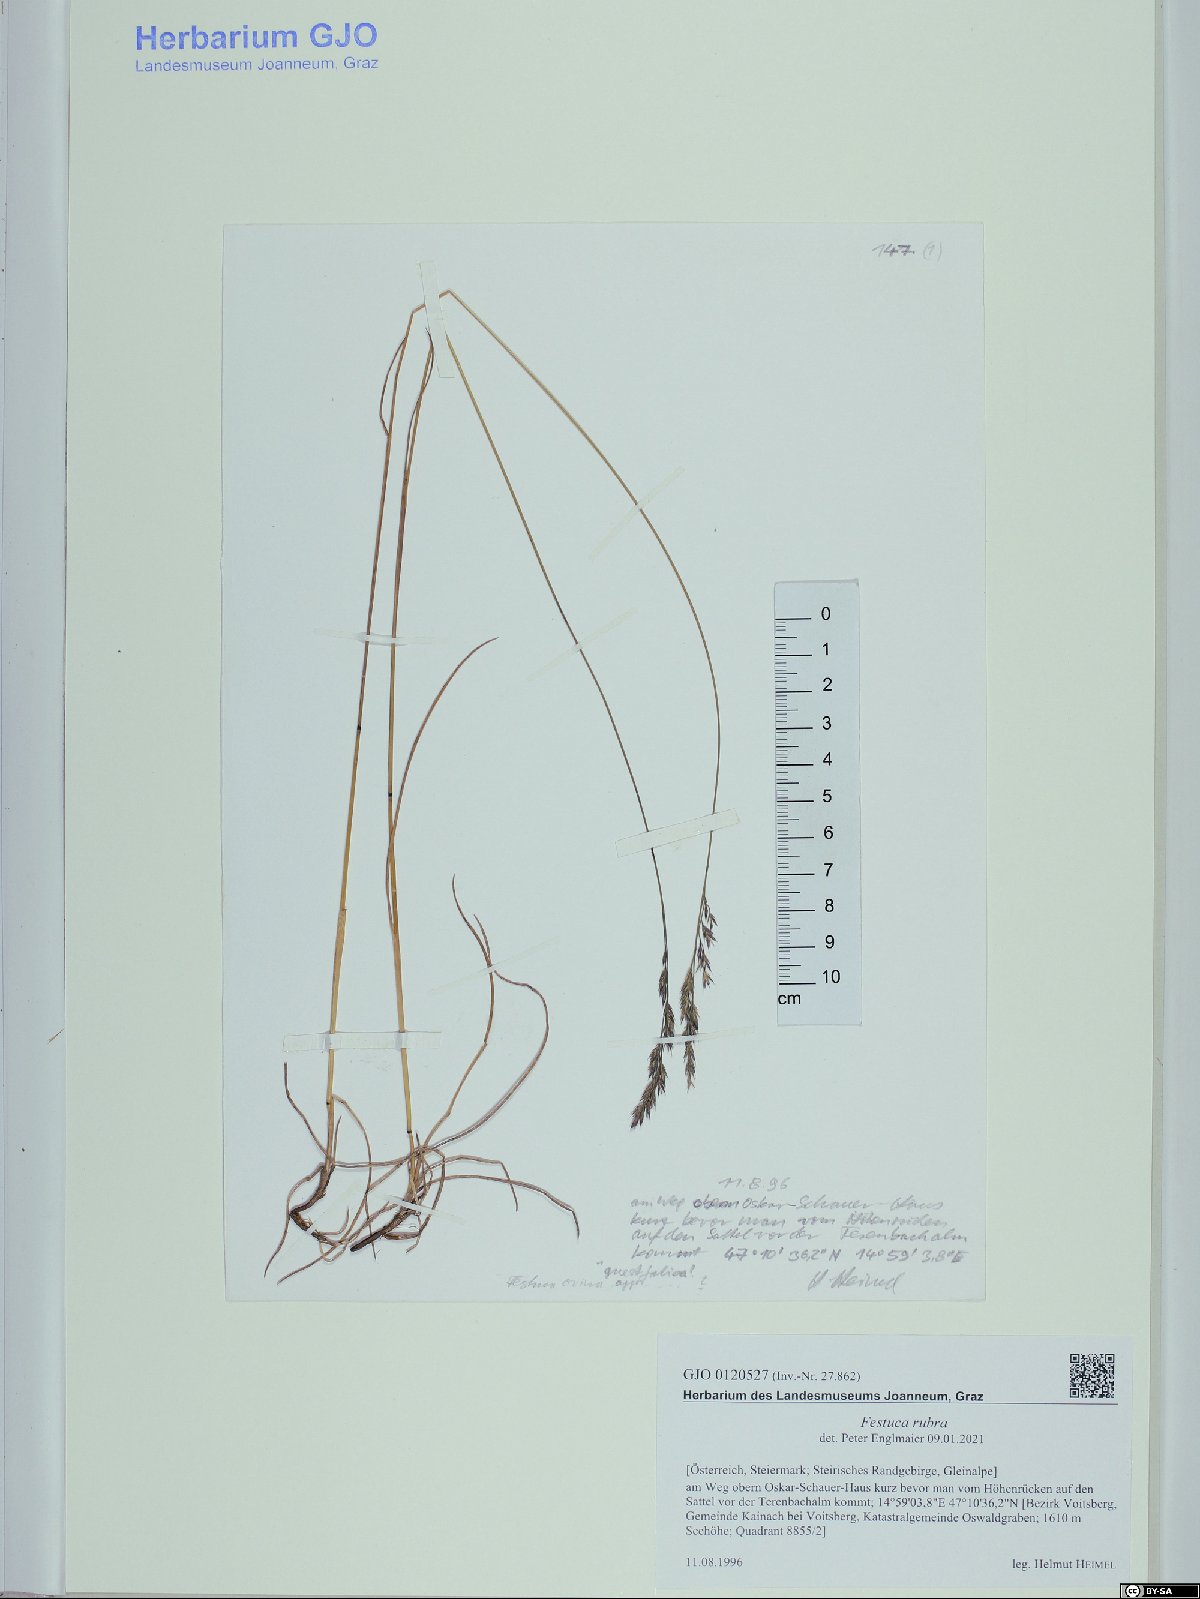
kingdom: Plantae
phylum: Tracheophyta
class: Liliopsida
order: Poales
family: Poaceae
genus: Festuca
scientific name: Festuca rubra
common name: Red fescue
